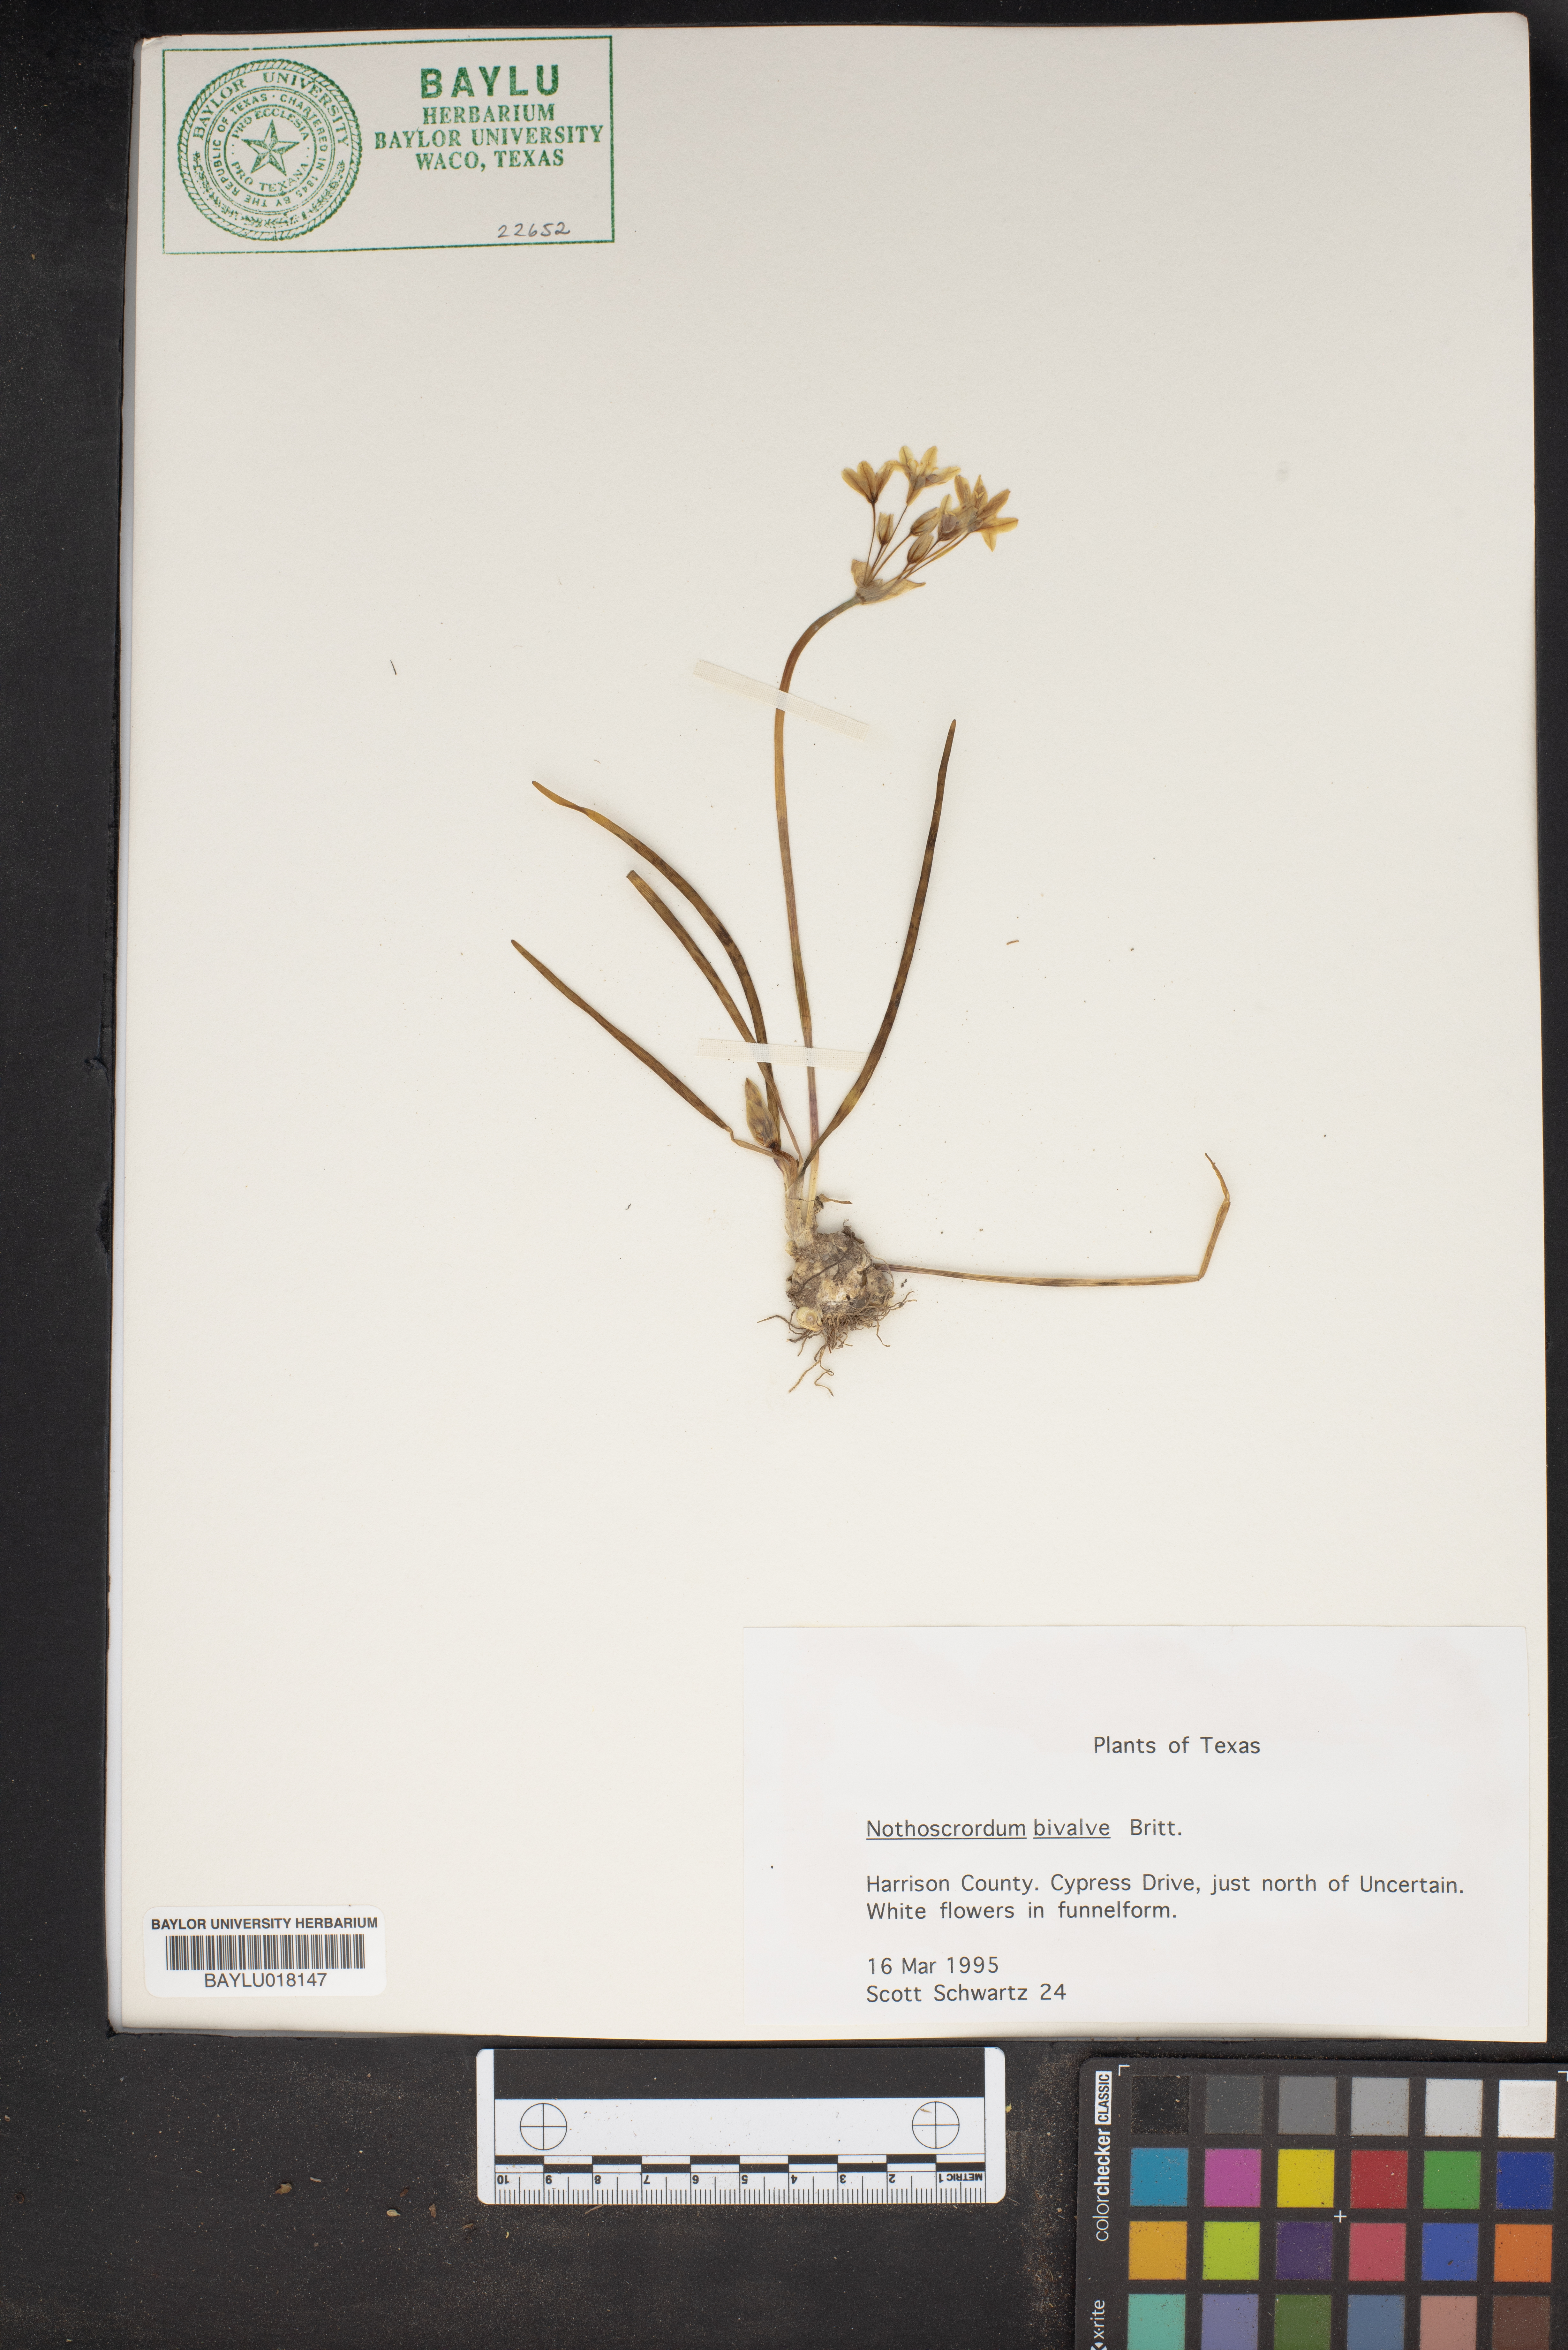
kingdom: Plantae
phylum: Tracheophyta
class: Liliopsida
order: Asparagales
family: Amaryllidaceae
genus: Nothoscordum
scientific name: Nothoscordum bivalve
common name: Crow-poison
